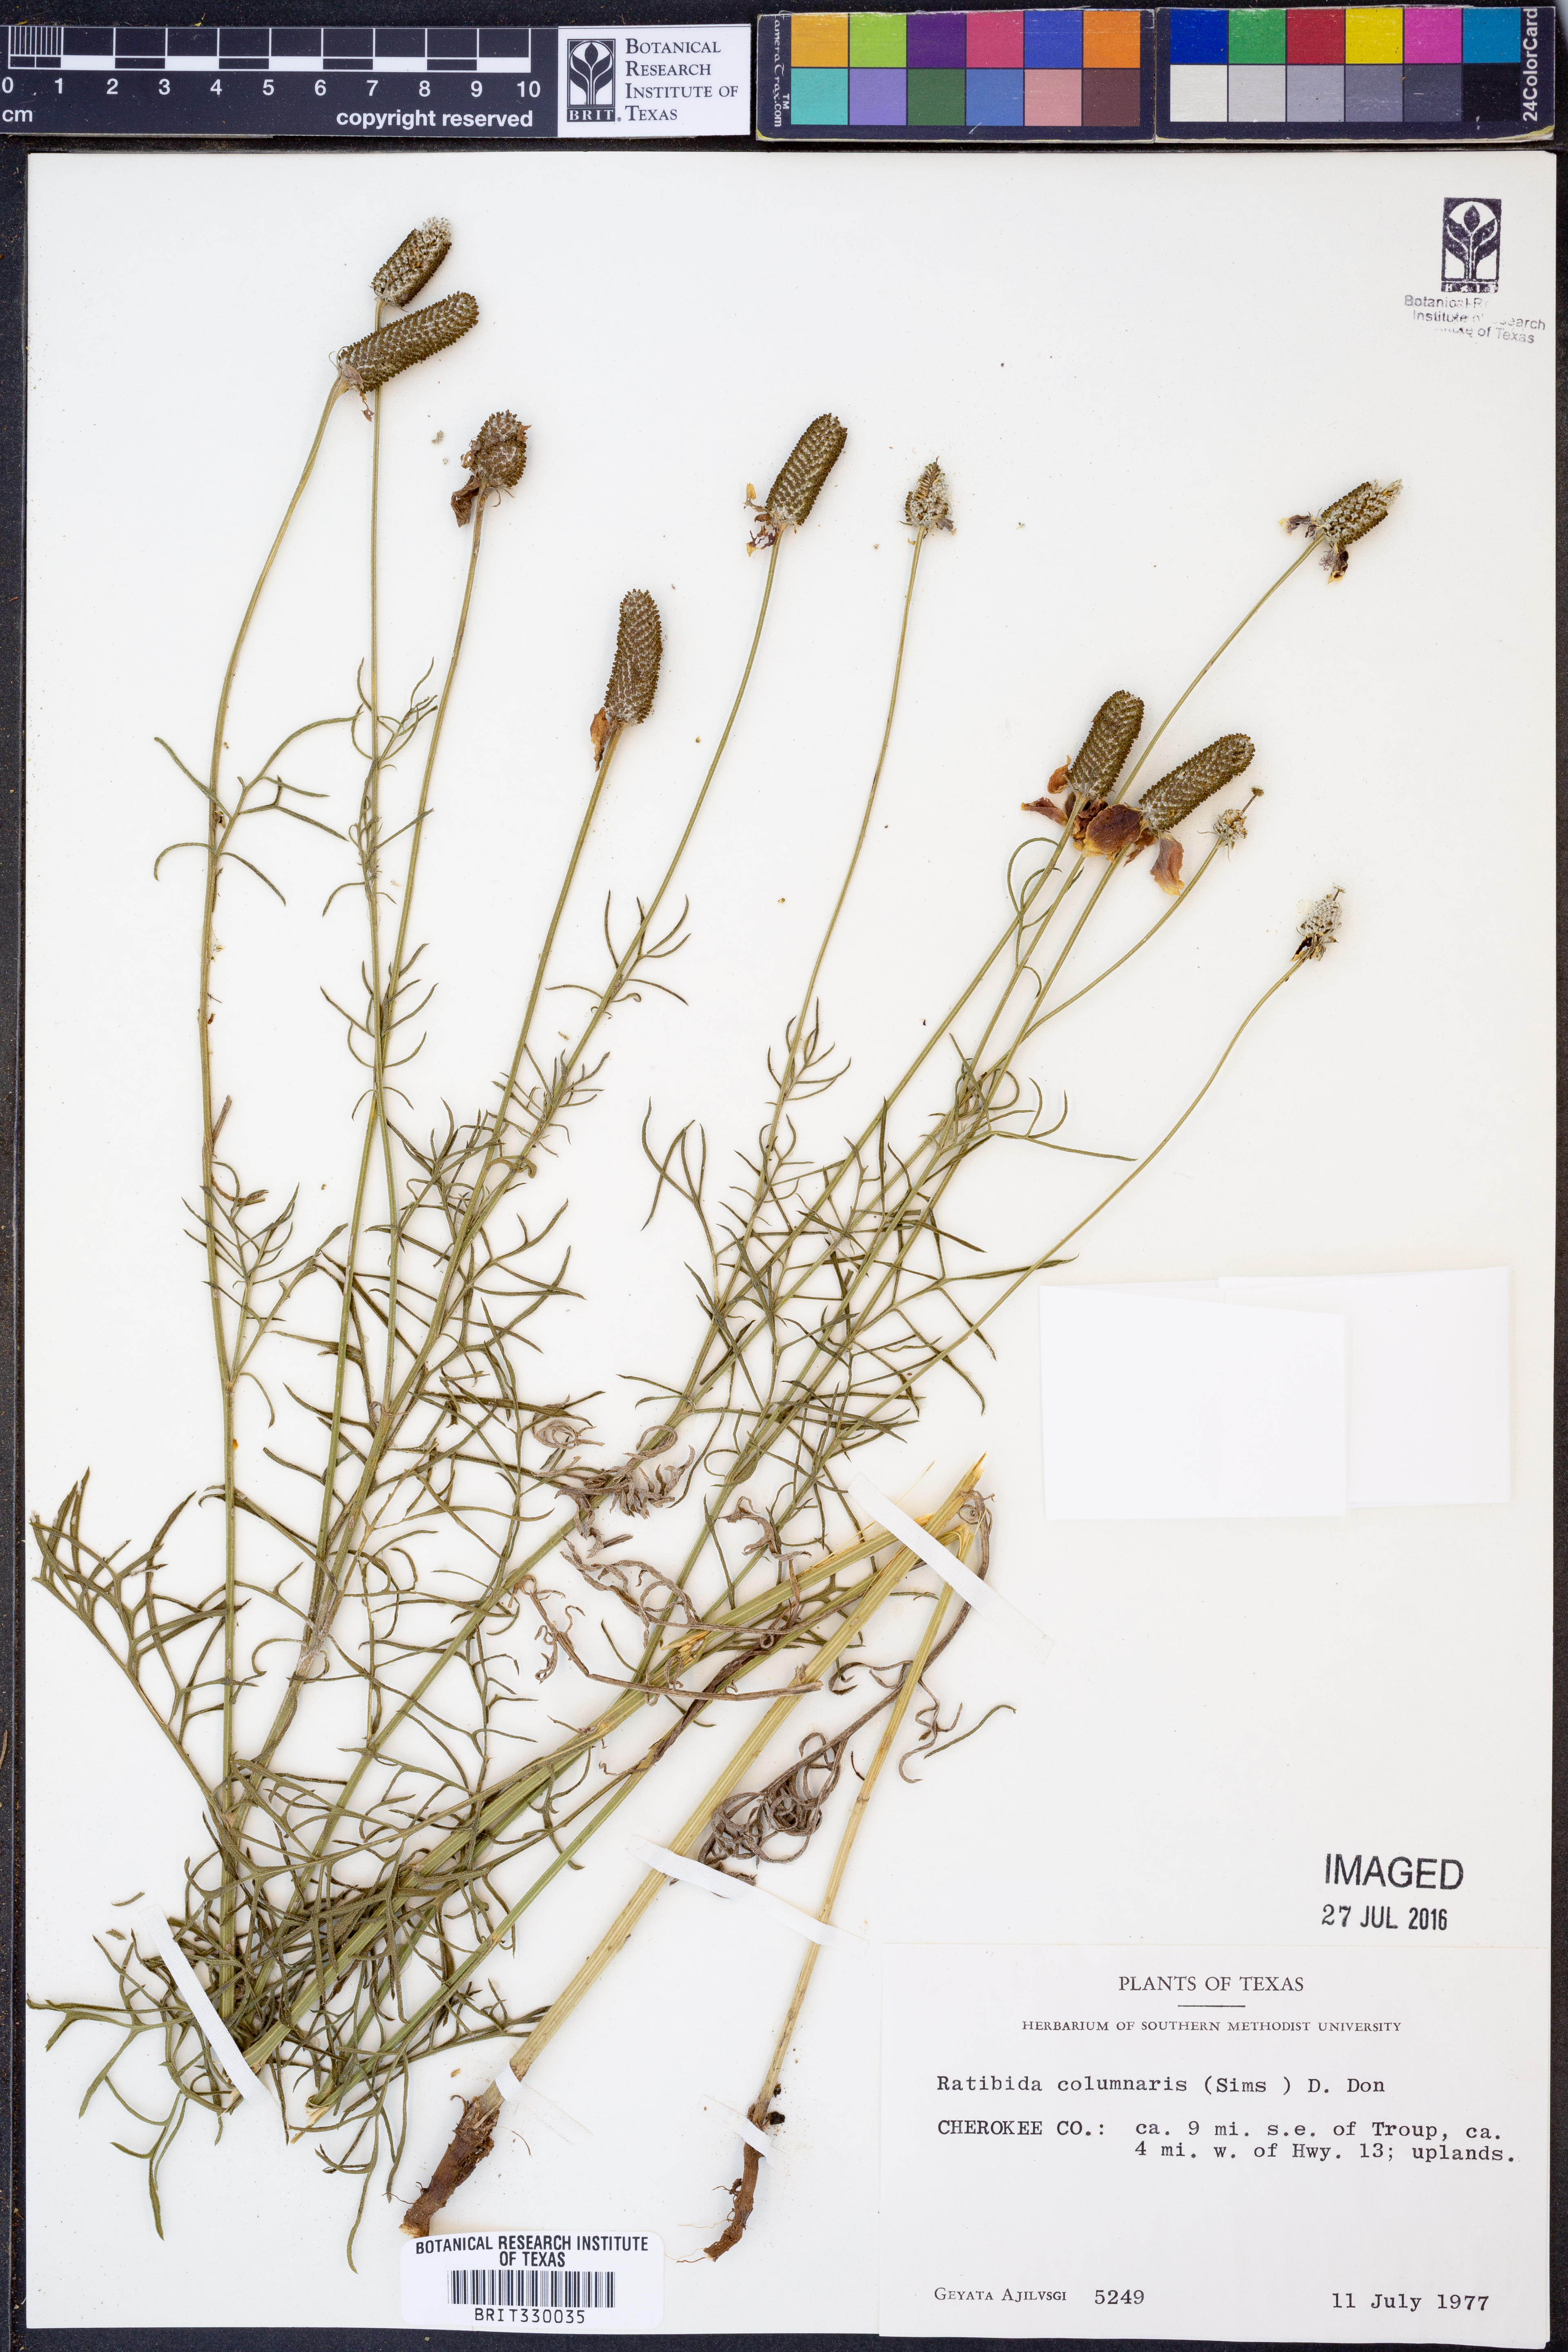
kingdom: Plantae
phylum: Tracheophyta
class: Magnoliopsida
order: Asterales
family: Asteraceae
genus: Ratibida
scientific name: Ratibida columnifera
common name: Prairie coneflower
